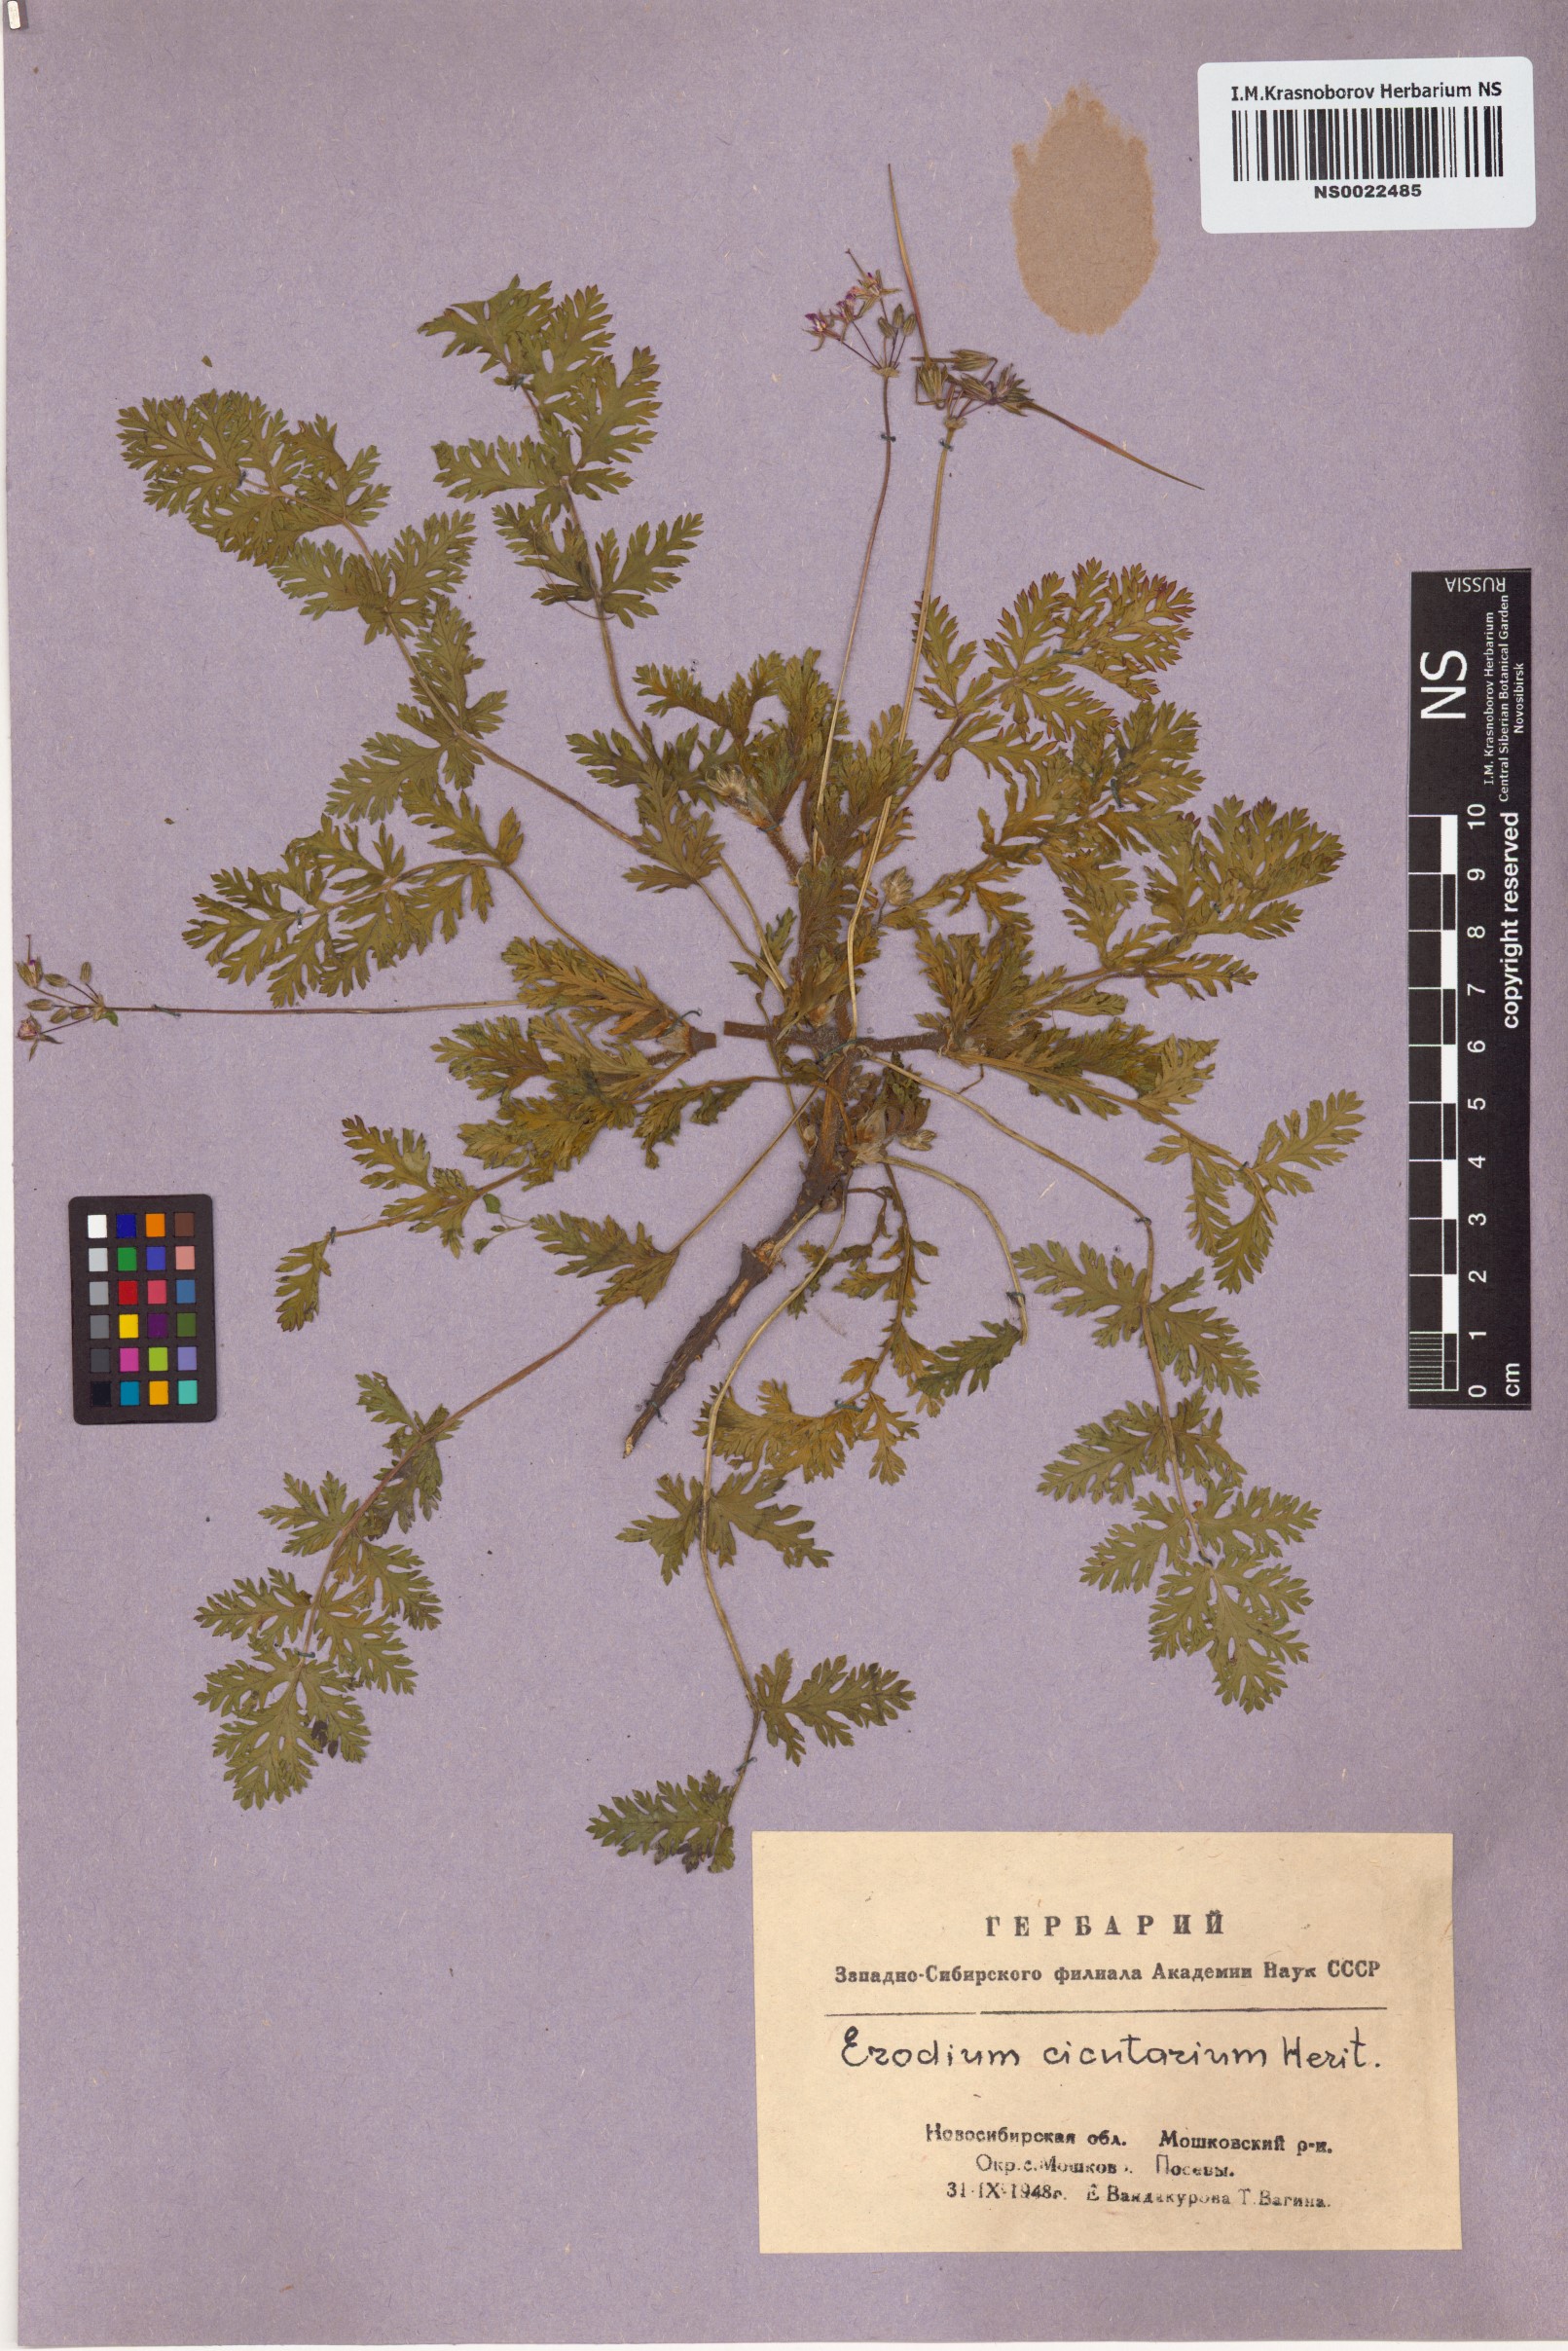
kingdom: Plantae
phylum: Tracheophyta
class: Magnoliopsida
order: Geraniales
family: Geraniaceae
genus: Erodium
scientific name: Erodium cicutarium
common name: Common stork's-bill
